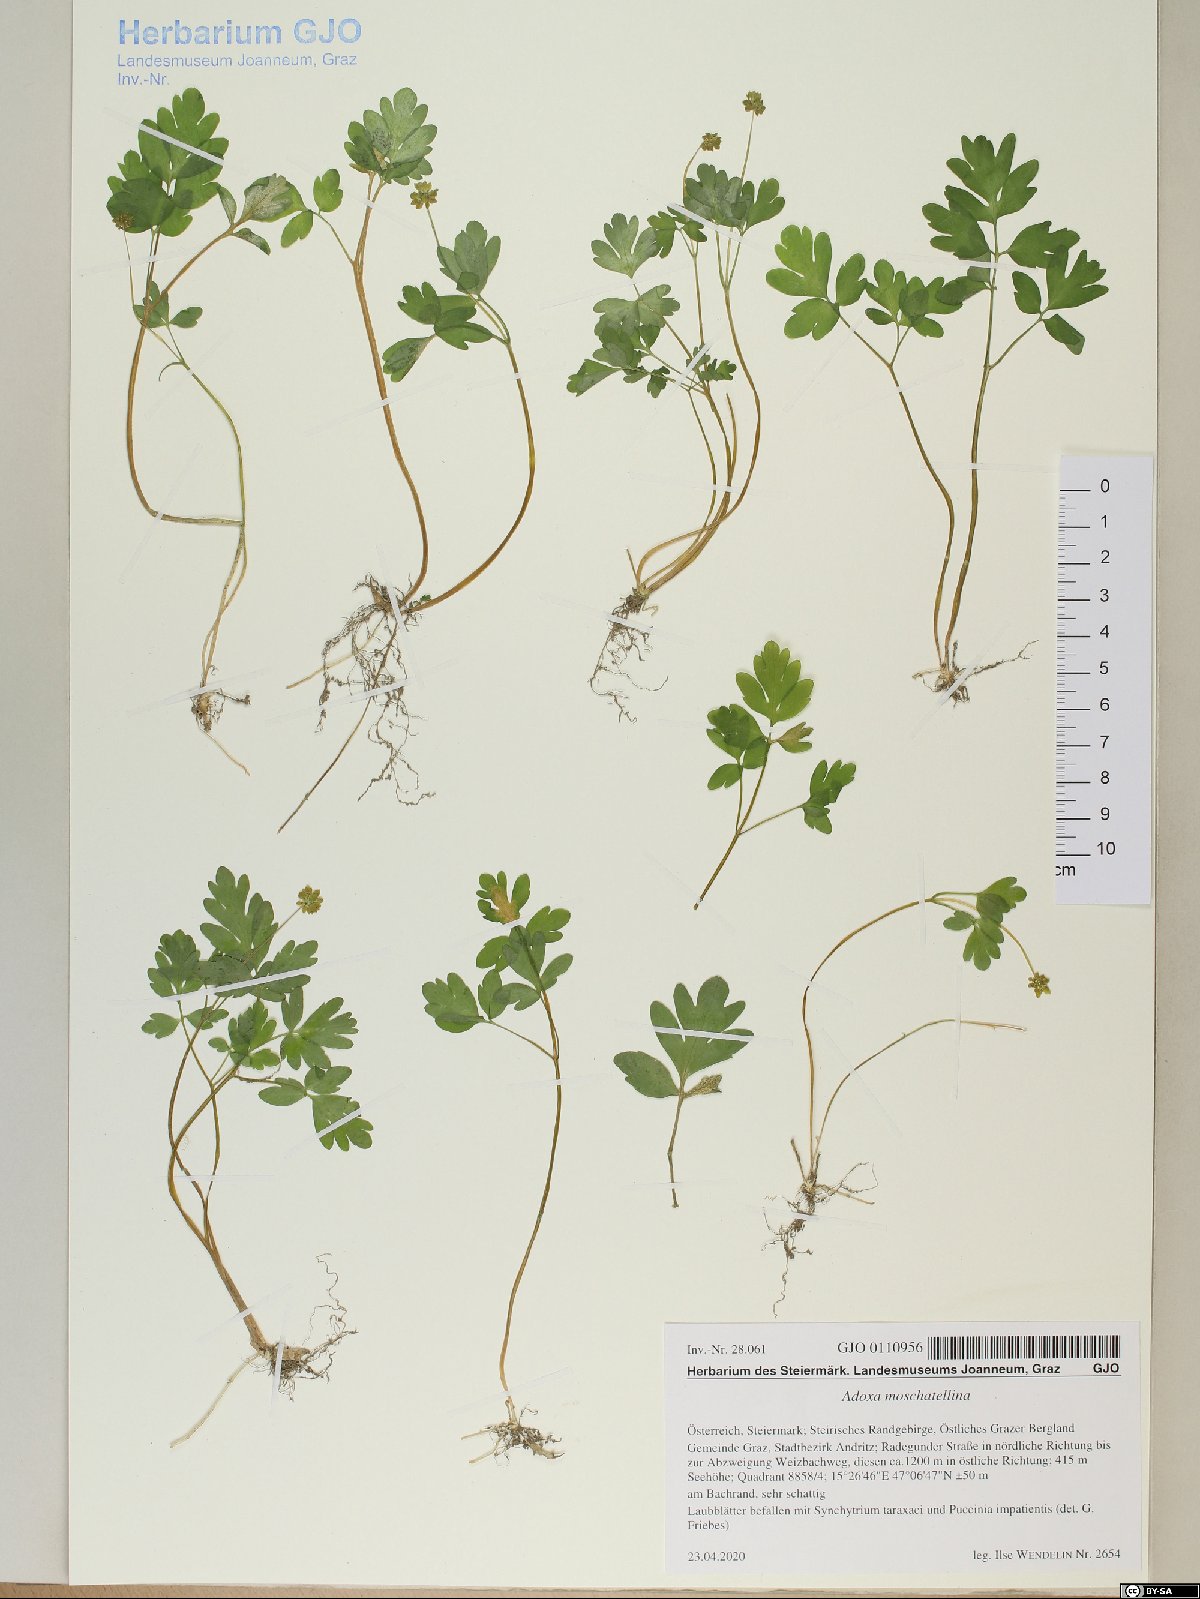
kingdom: Plantae
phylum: Tracheophyta
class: Magnoliopsida
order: Dipsacales
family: Viburnaceae
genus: Adoxa
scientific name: Adoxa moschatellina
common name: Moschatel
